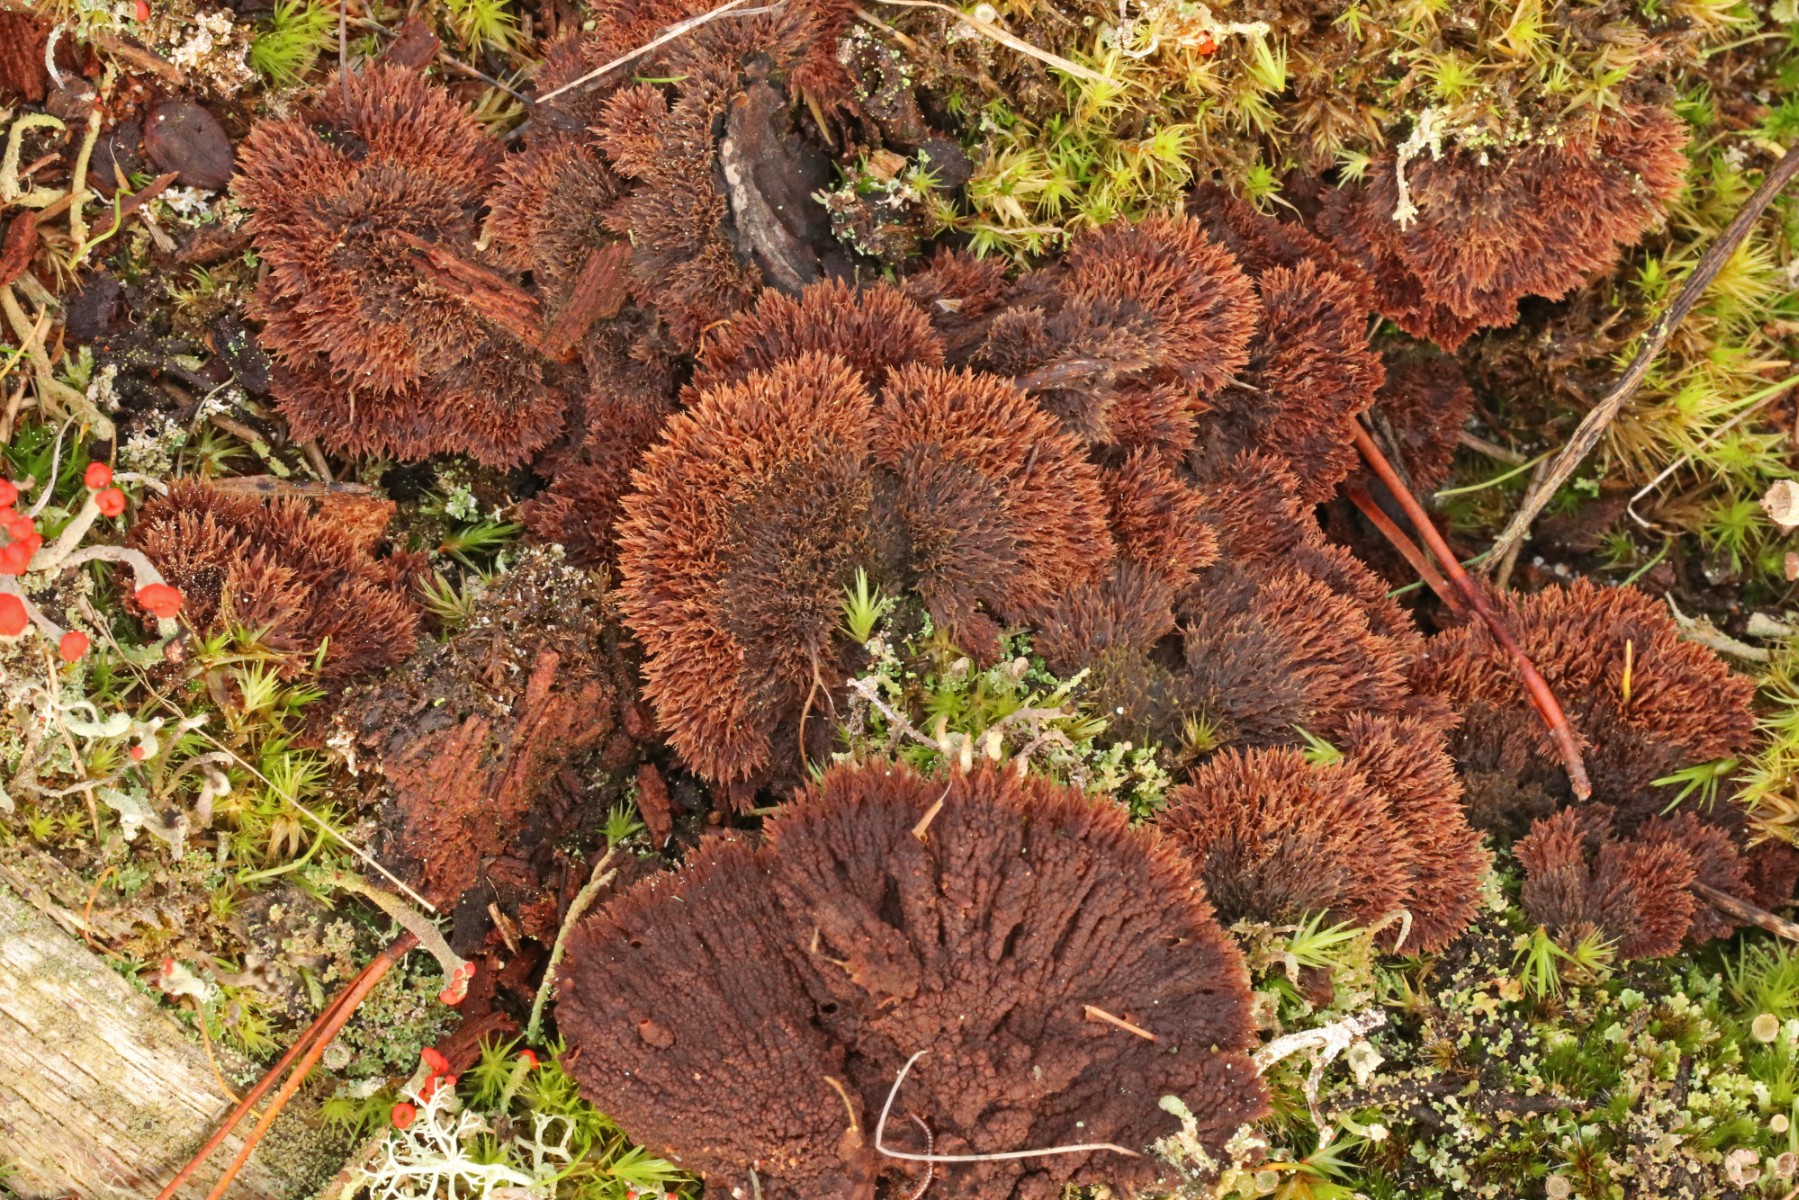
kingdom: Fungi
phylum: Basidiomycota
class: Agaricomycetes
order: Thelephorales
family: Thelephoraceae
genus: Thelephora
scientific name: Thelephora terrestris
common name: fliget frynsesvamp
